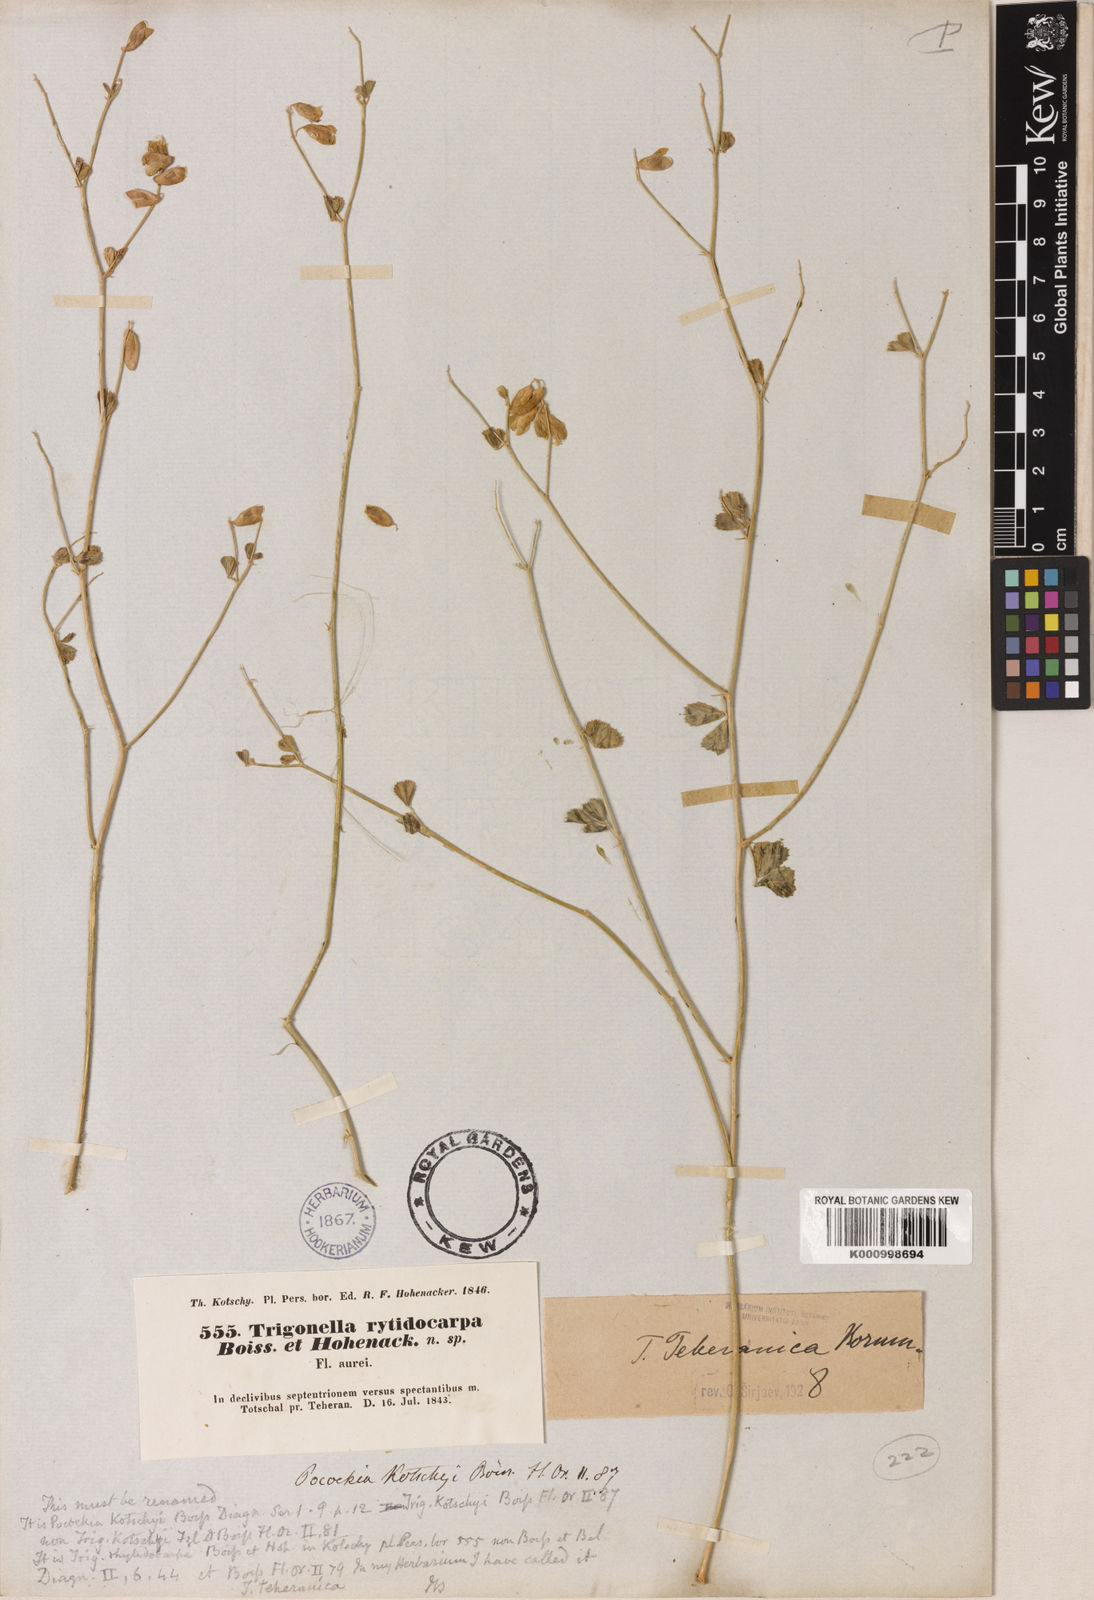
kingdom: Plantae
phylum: Tracheophyta
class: Magnoliopsida
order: Fabales
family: Fabaceae
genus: Trigonella
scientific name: Trigonella teheranica
